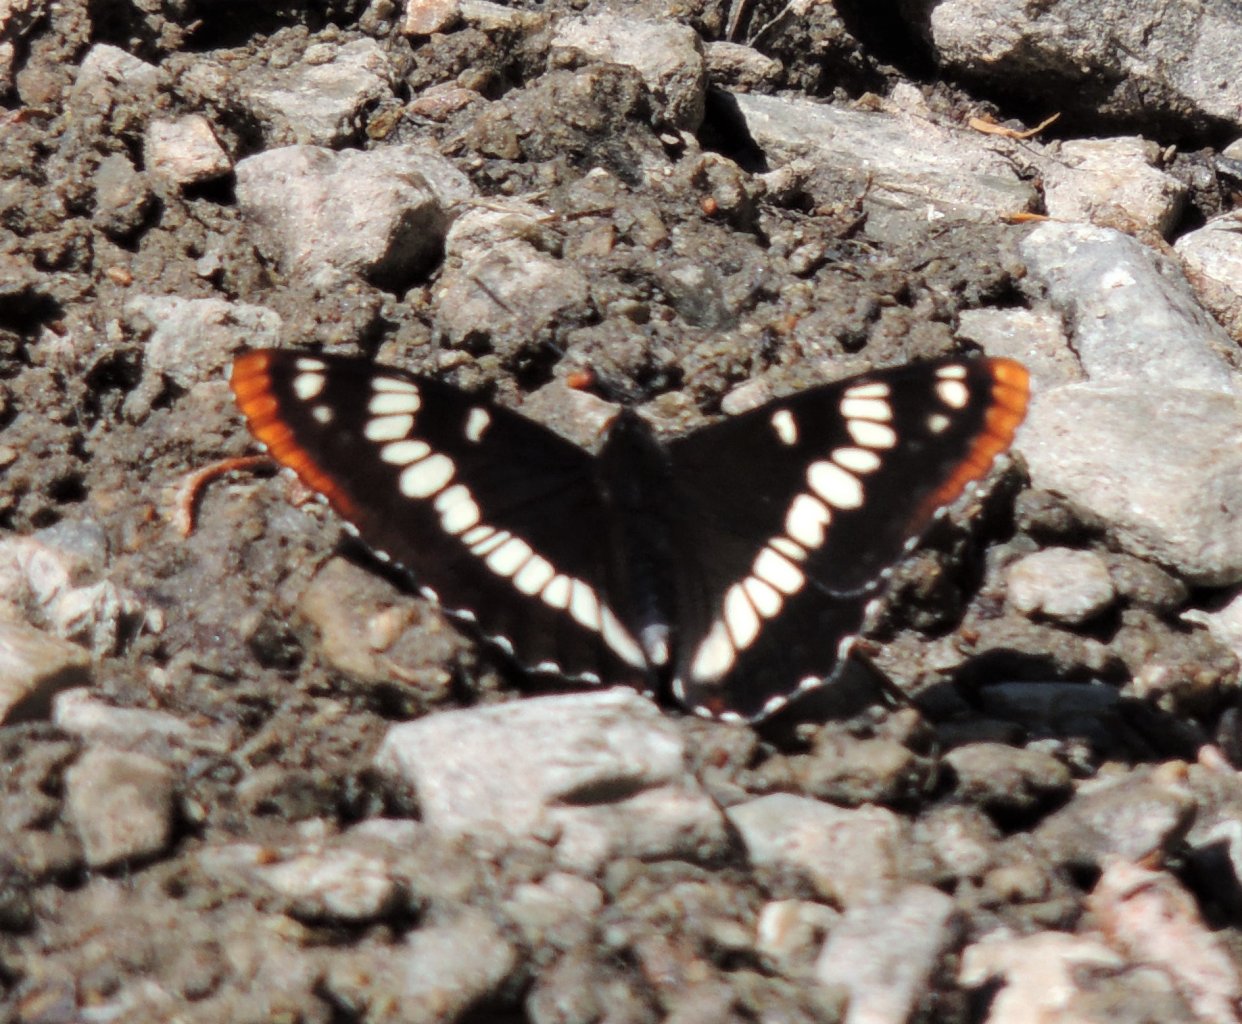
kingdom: Animalia
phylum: Arthropoda
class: Insecta
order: Lepidoptera
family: Nymphalidae
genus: Limenitis
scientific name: Limenitis lorquini
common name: Lorquin's Admiral
